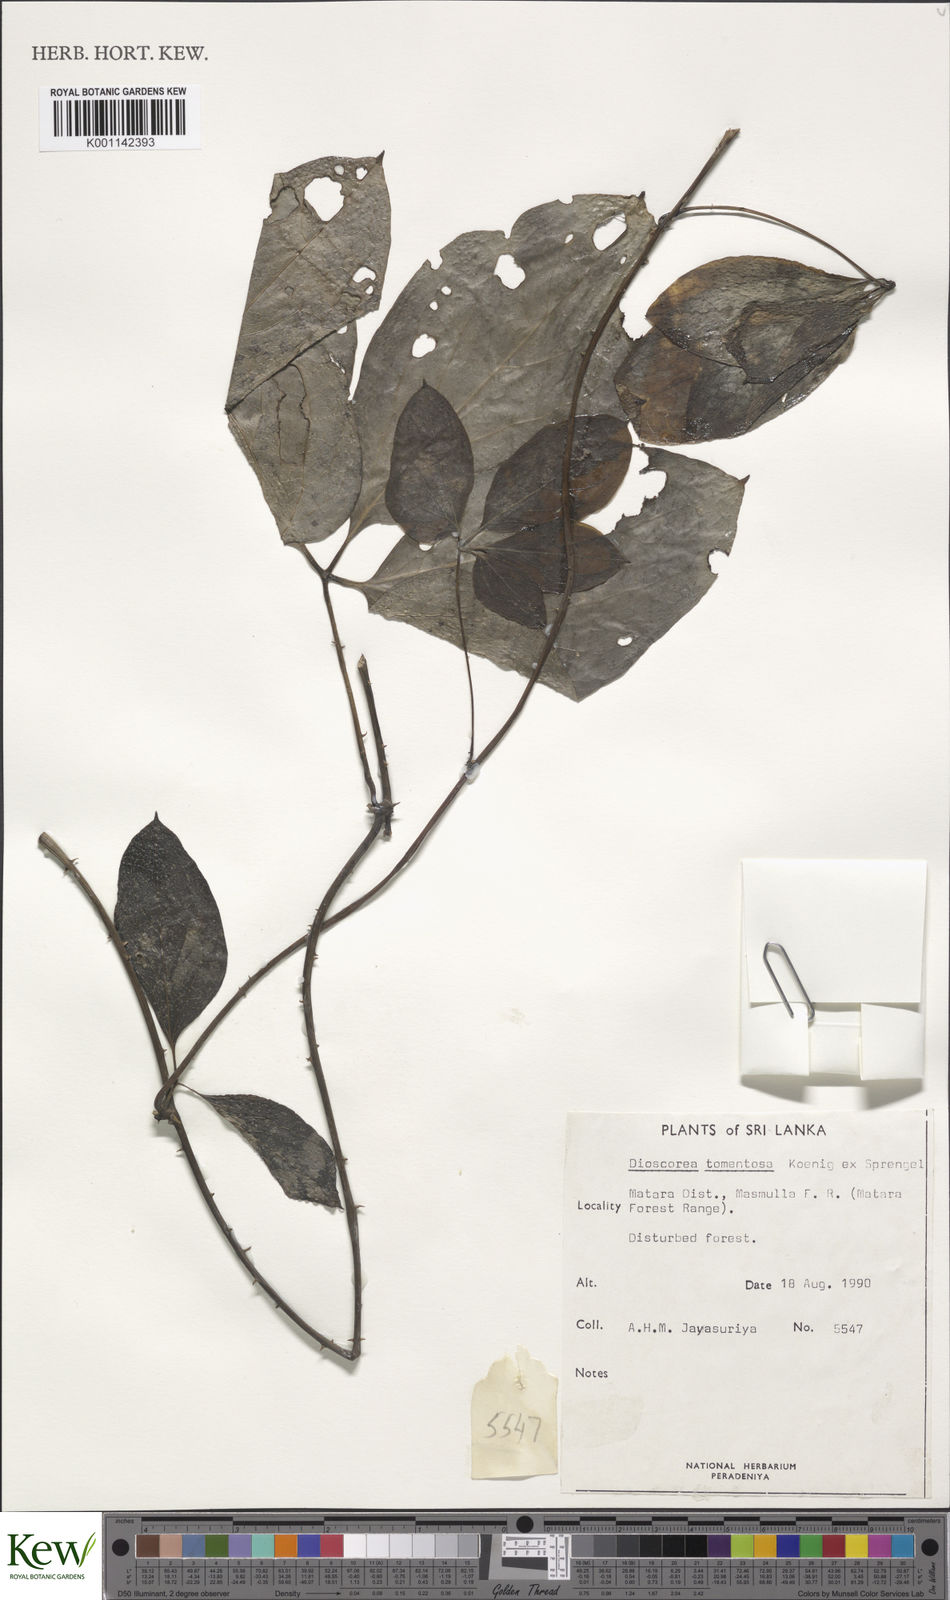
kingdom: Plantae
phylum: Tracheophyta
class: Liliopsida
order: Dioscoreales
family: Dioscoreaceae
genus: Dioscorea
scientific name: Dioscorea
